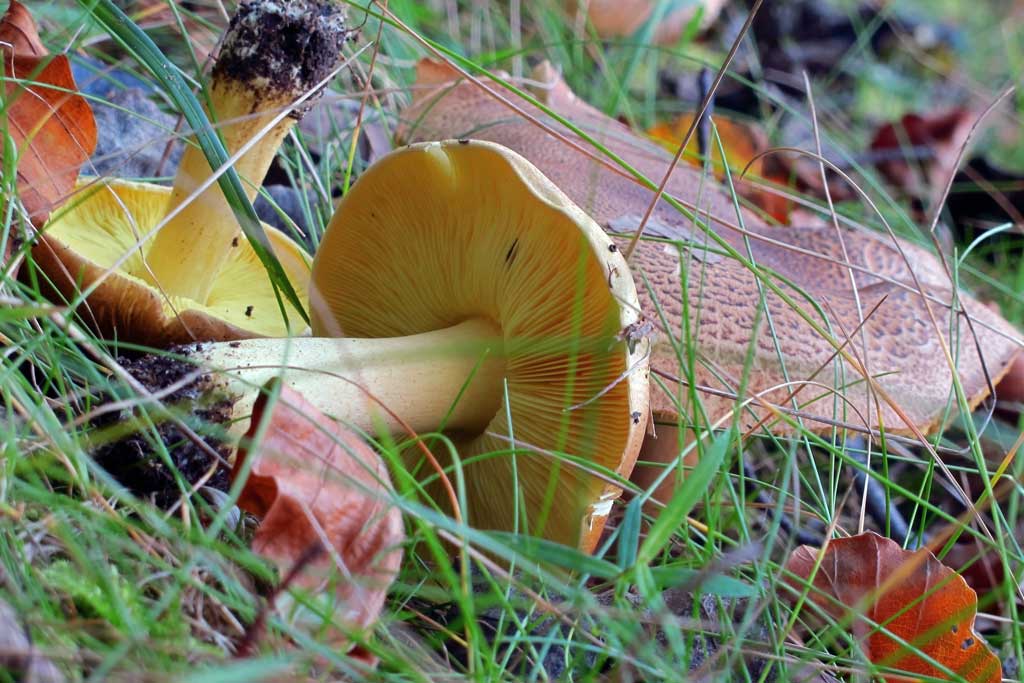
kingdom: Fungi
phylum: Basidiomycota
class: Agaricomycetes
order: Agaricales
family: Tricholomataceae
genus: Tricholoma
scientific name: Tricholoma frondosae
